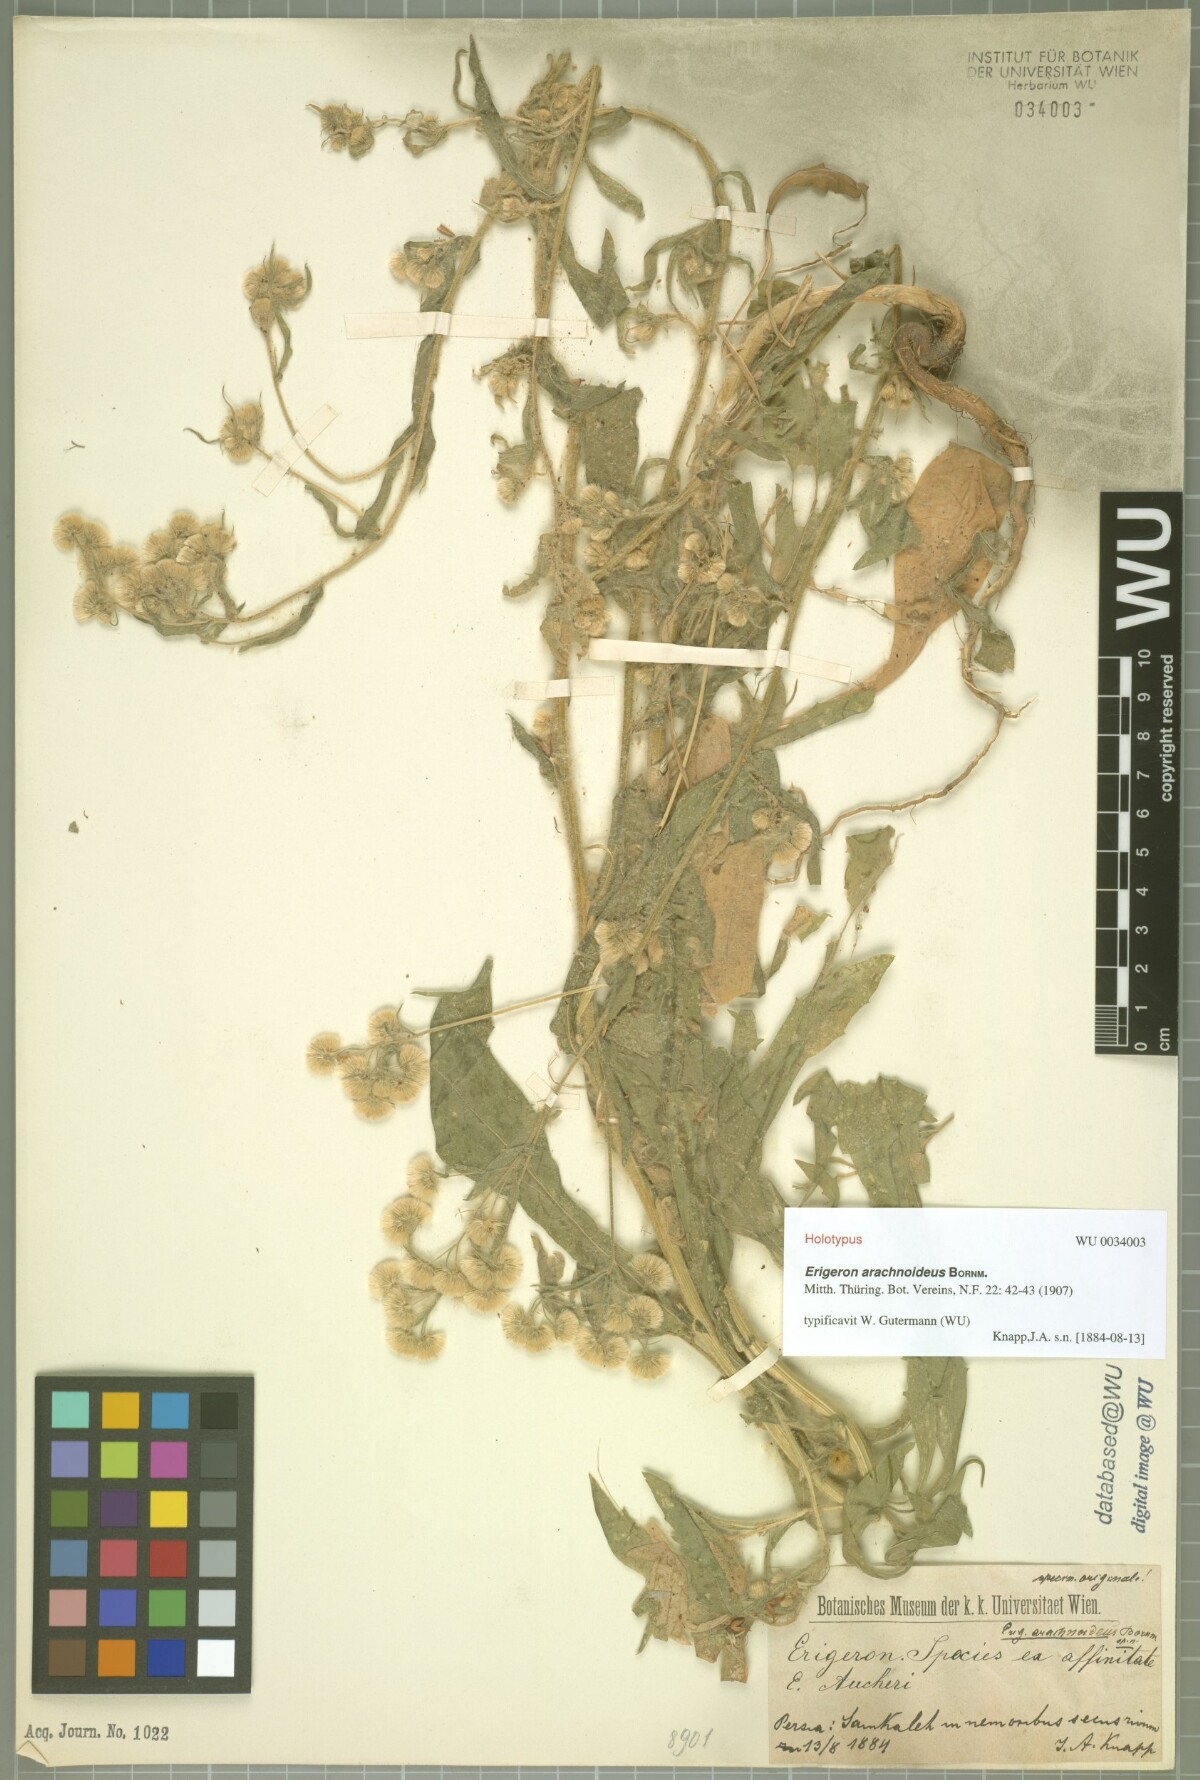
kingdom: Plantae
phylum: Tracheophyta
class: Magnoliopsida
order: Asterales
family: Asteraceae
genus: Erigeron
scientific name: Erigeron arachnoideus
